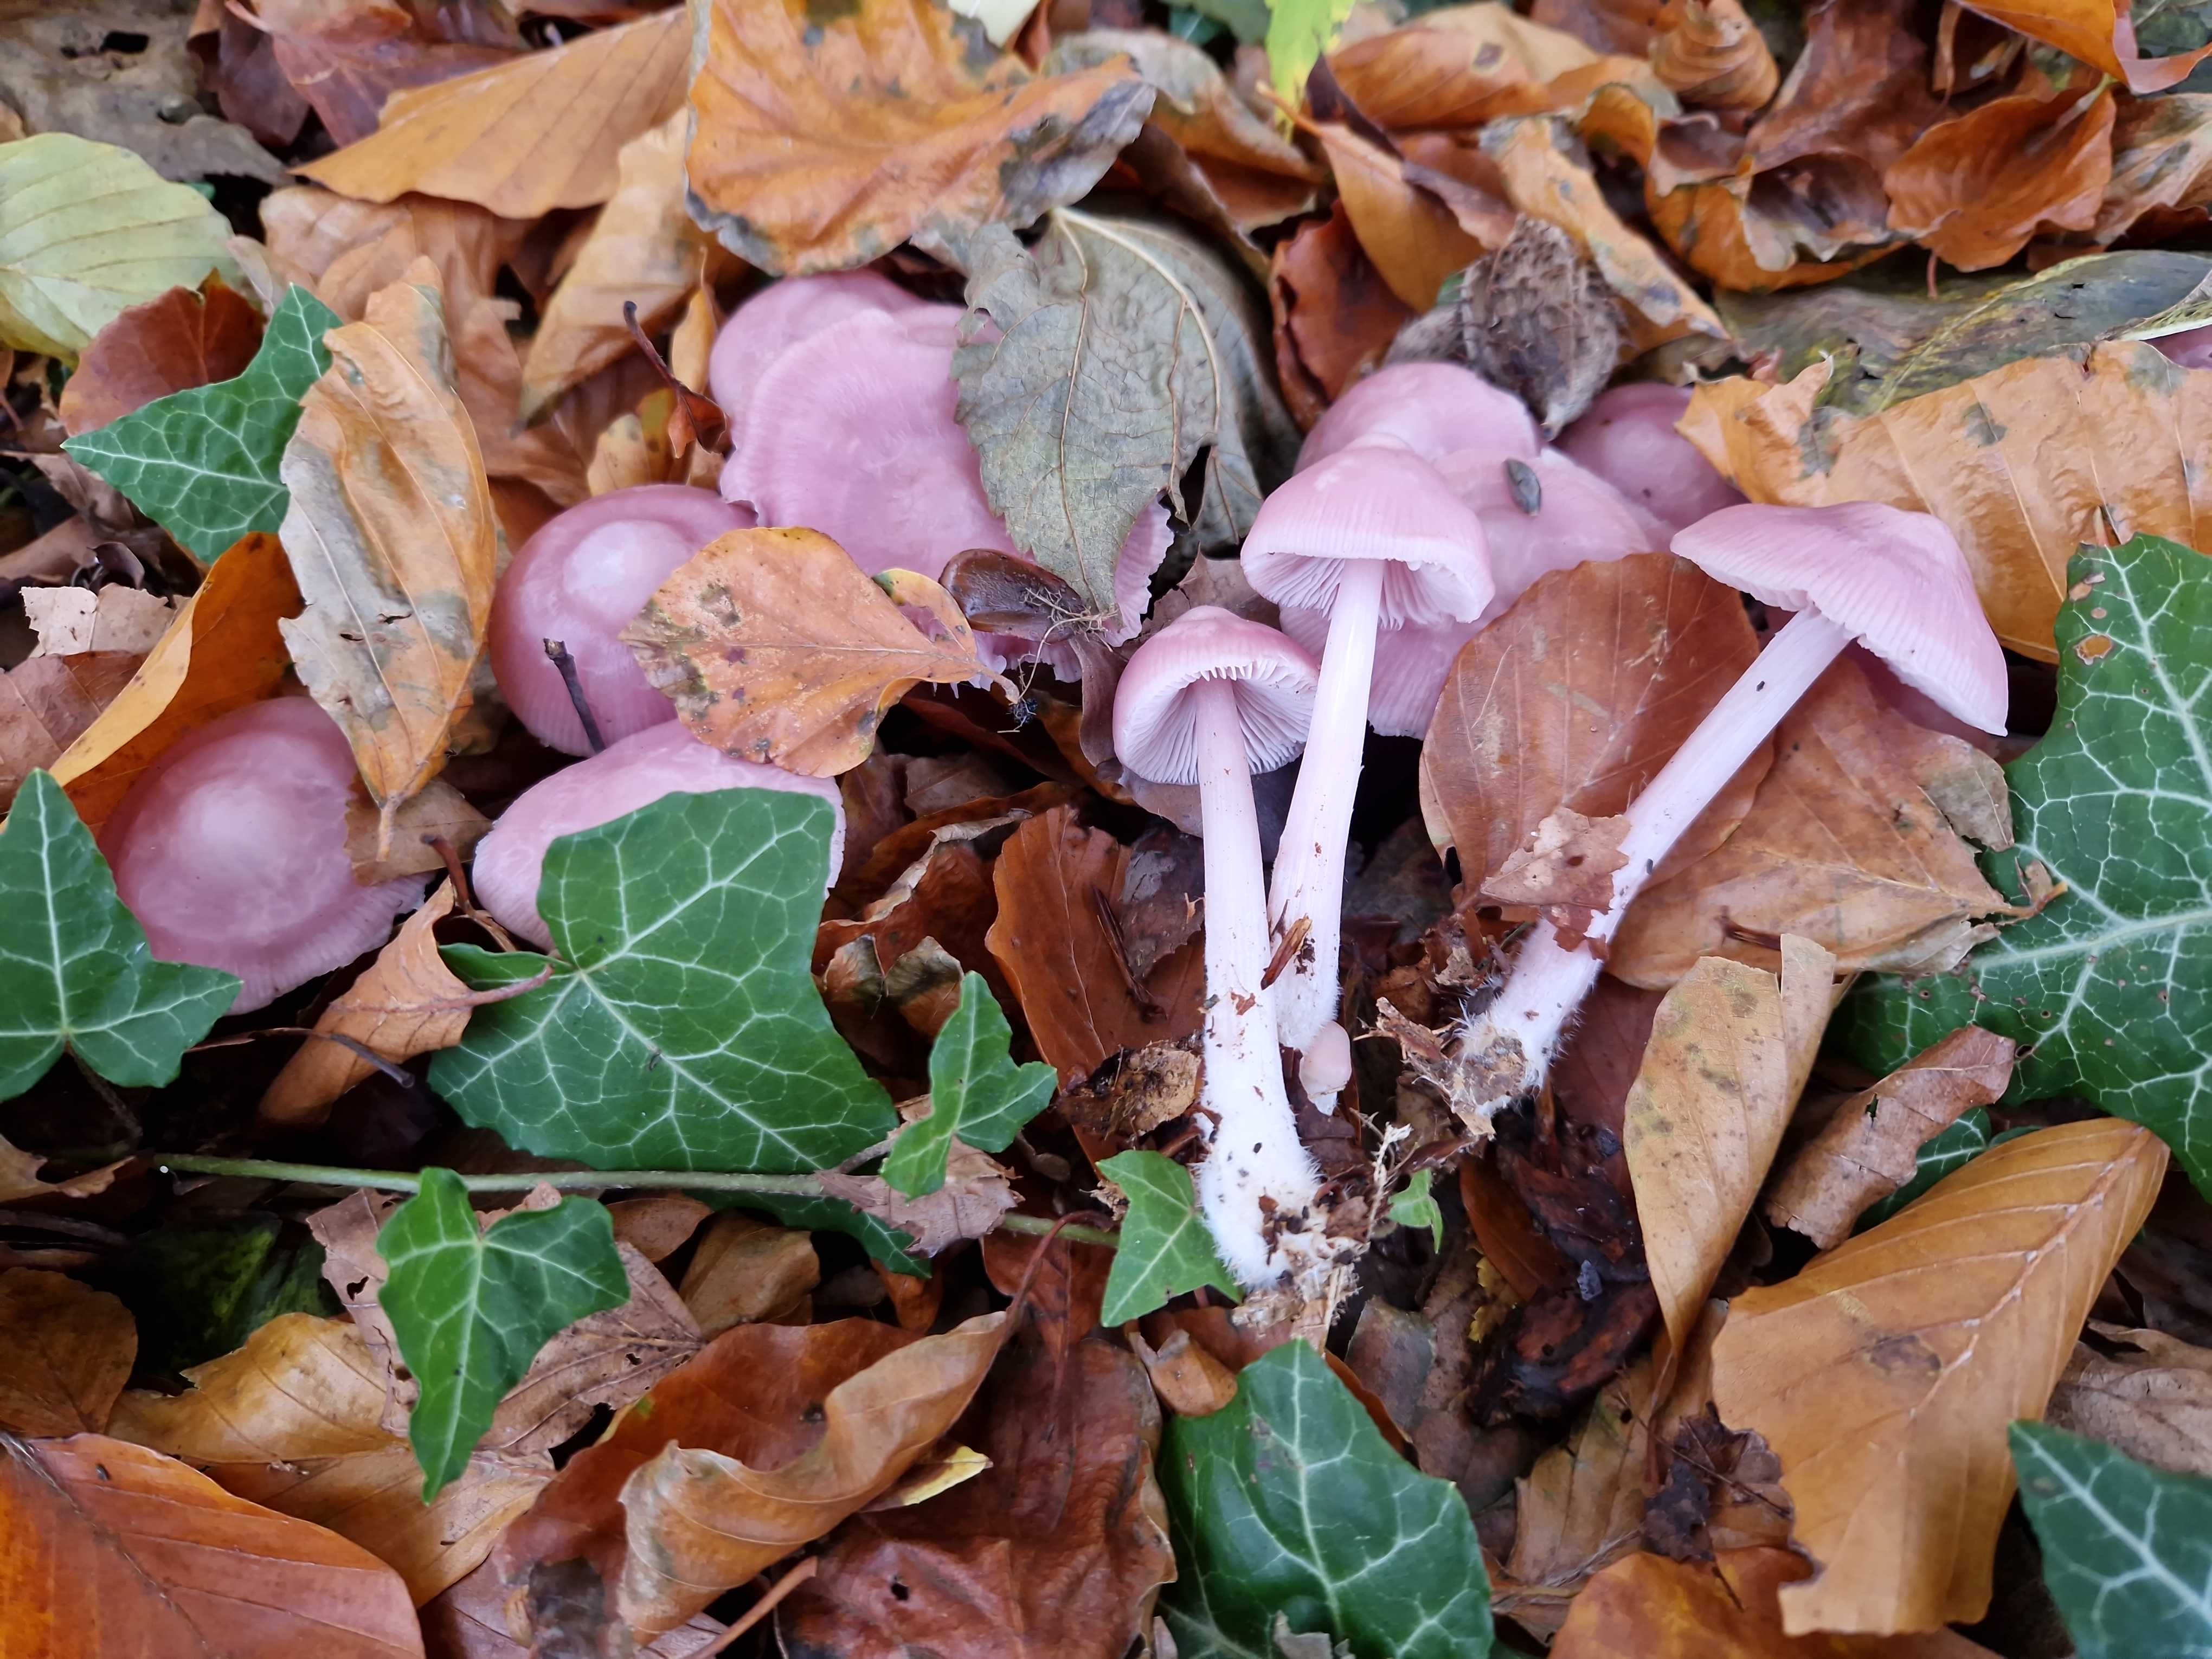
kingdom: Fungi
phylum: Basidiomycota
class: Agaricomycetes
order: Agaricales
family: Mycenaceae
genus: Mycena
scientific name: Mycena rosea
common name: rosa huesvamp
